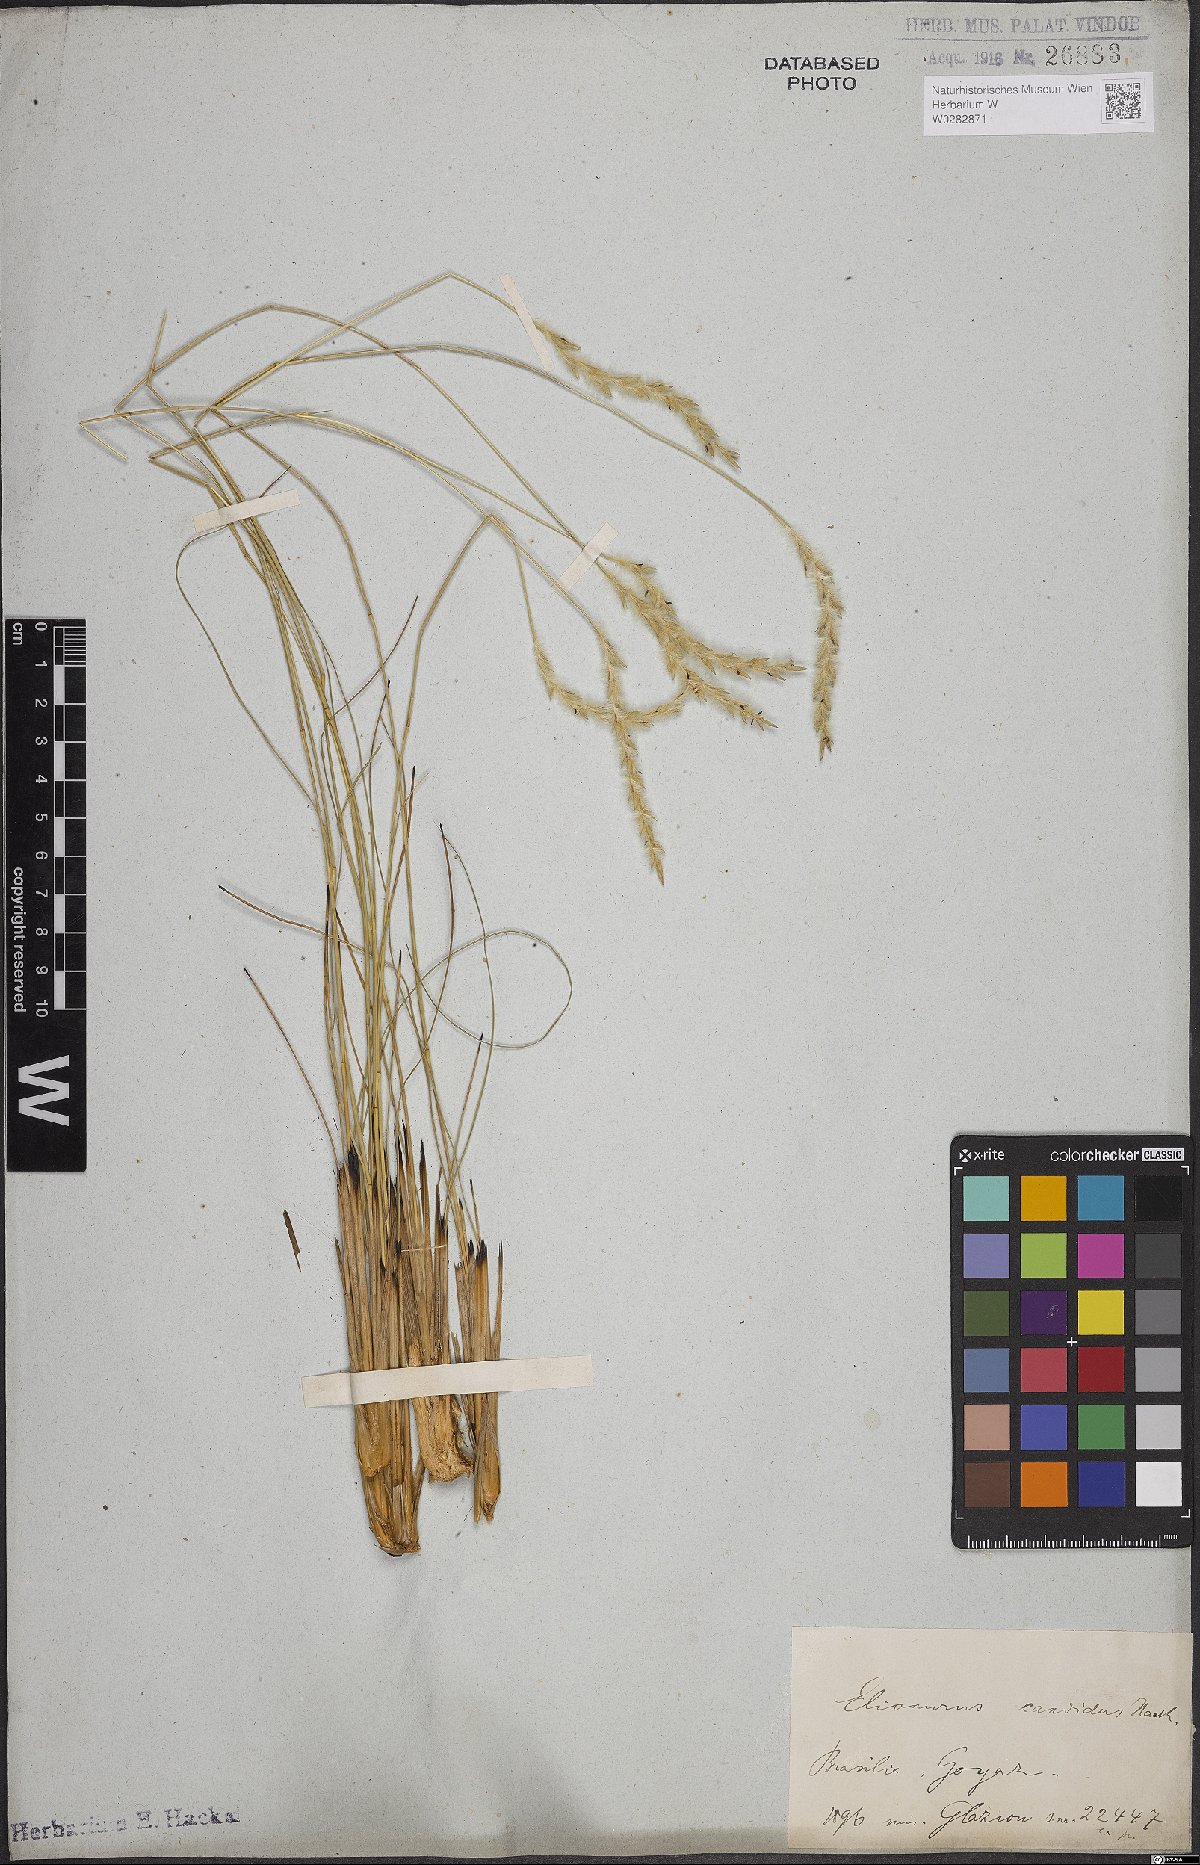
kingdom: Plantae
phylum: Tracheophyta
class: Liliopsida
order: Poales
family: Poaceae
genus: Elionurus
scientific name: Elionurus muticus
